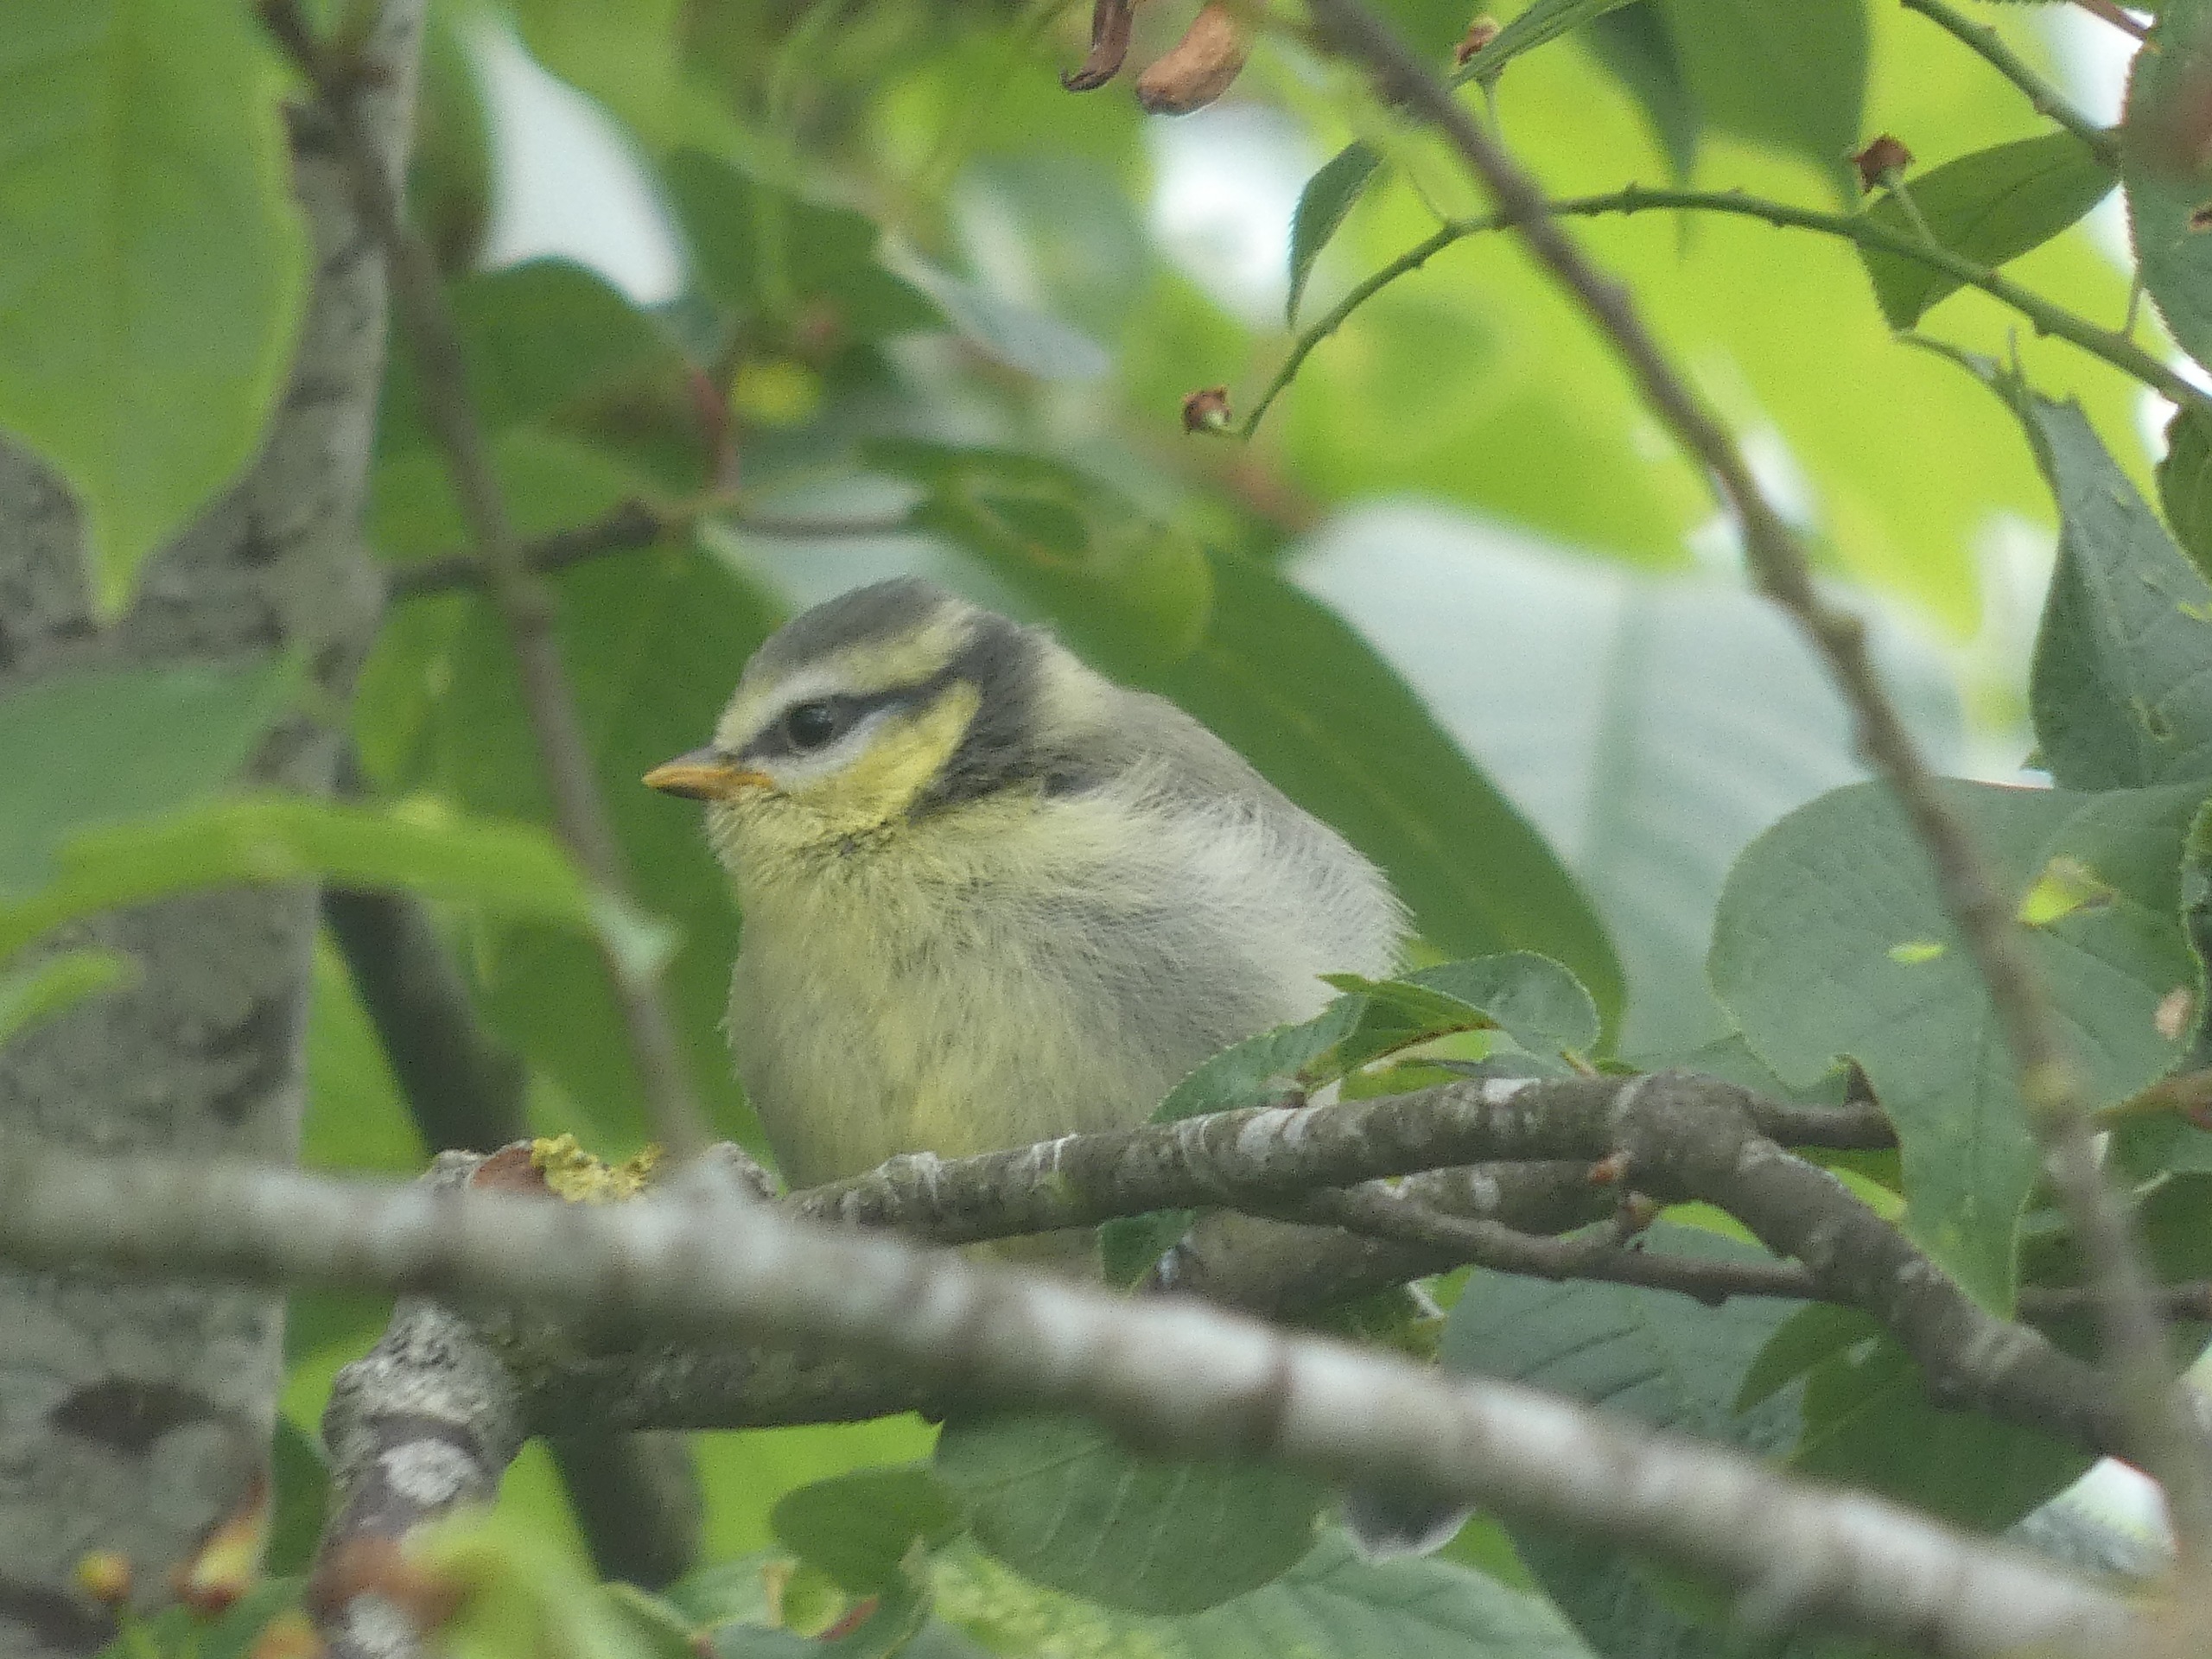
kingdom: Animalia
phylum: Chordata
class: Aves
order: Passeriformes
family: Paridae
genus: Cyanistes
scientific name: Cyanistes caeruleus
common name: Blåmejse
